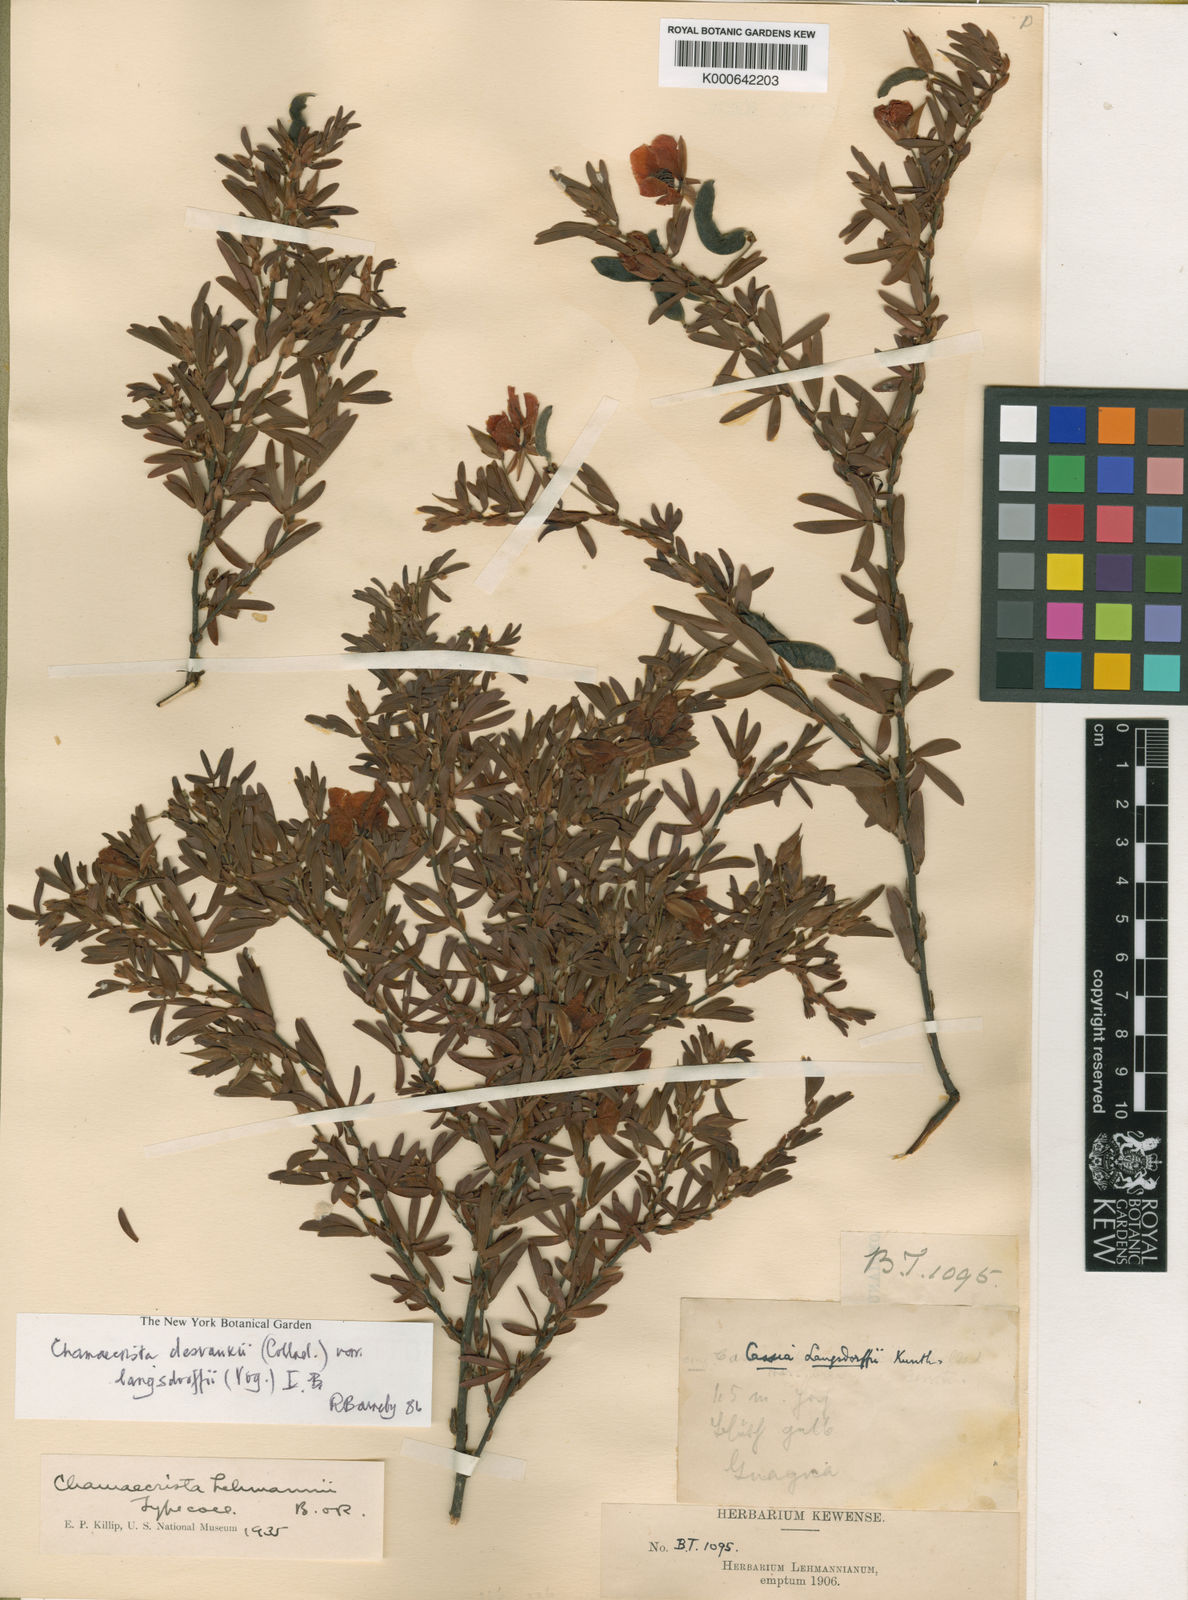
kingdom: Plantae
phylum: Tracheophyta
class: Magnoliopsida
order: Fabales
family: Fabaceae
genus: Chamaecrista
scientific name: Chamaecrista langsdorffii
